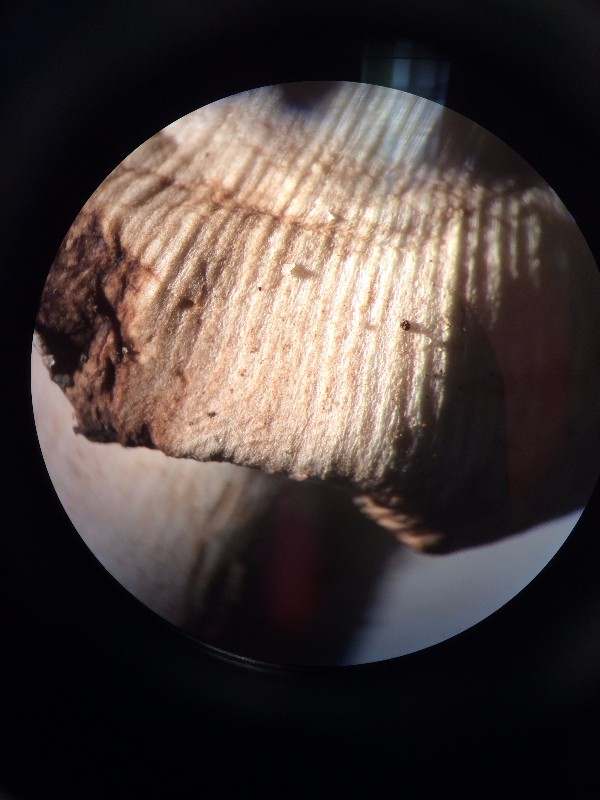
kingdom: Fungi
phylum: Basidiomycota
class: Agaricomycetes
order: Agaricales
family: Amanitaceae
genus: Amanita
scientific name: Amanita rubescens
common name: rødmende fluesvamp
